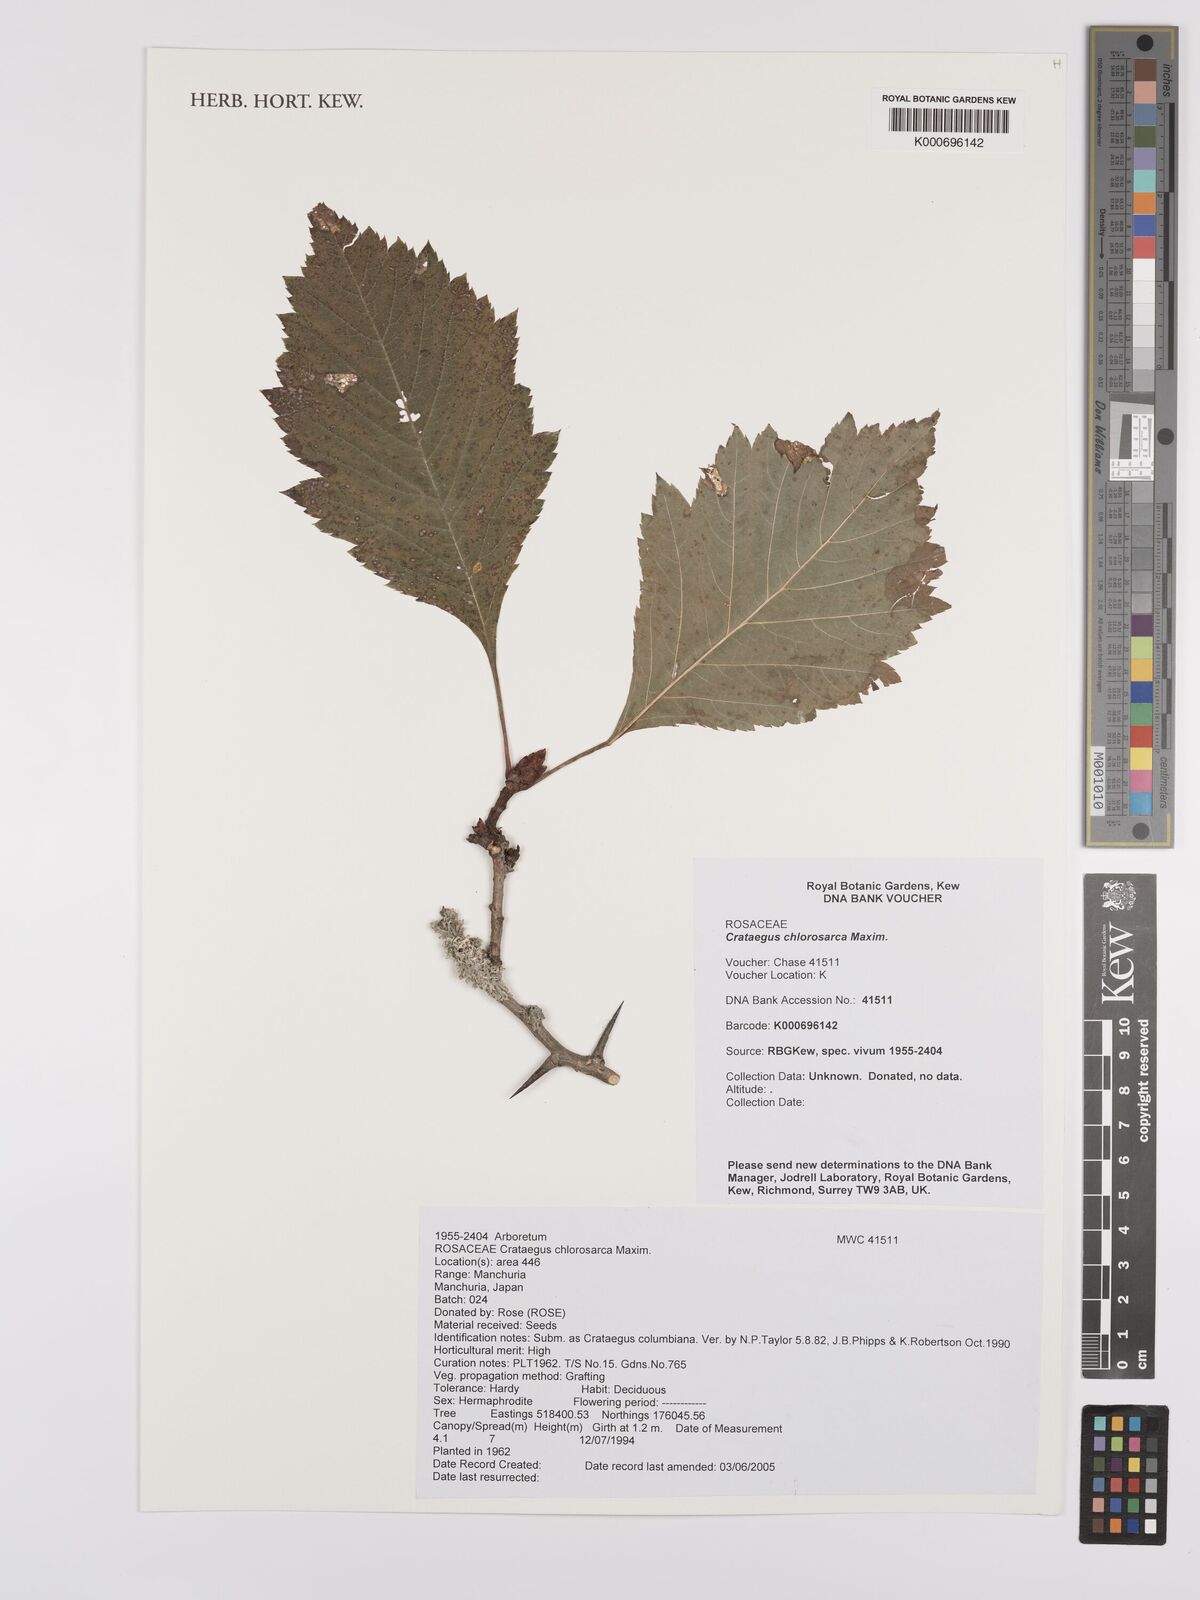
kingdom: Plantae
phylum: Tracheophyta
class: Magnoliopsida
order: Rosales
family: Rosaceae
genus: Crataegus
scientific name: Crataegus chlorosarca
